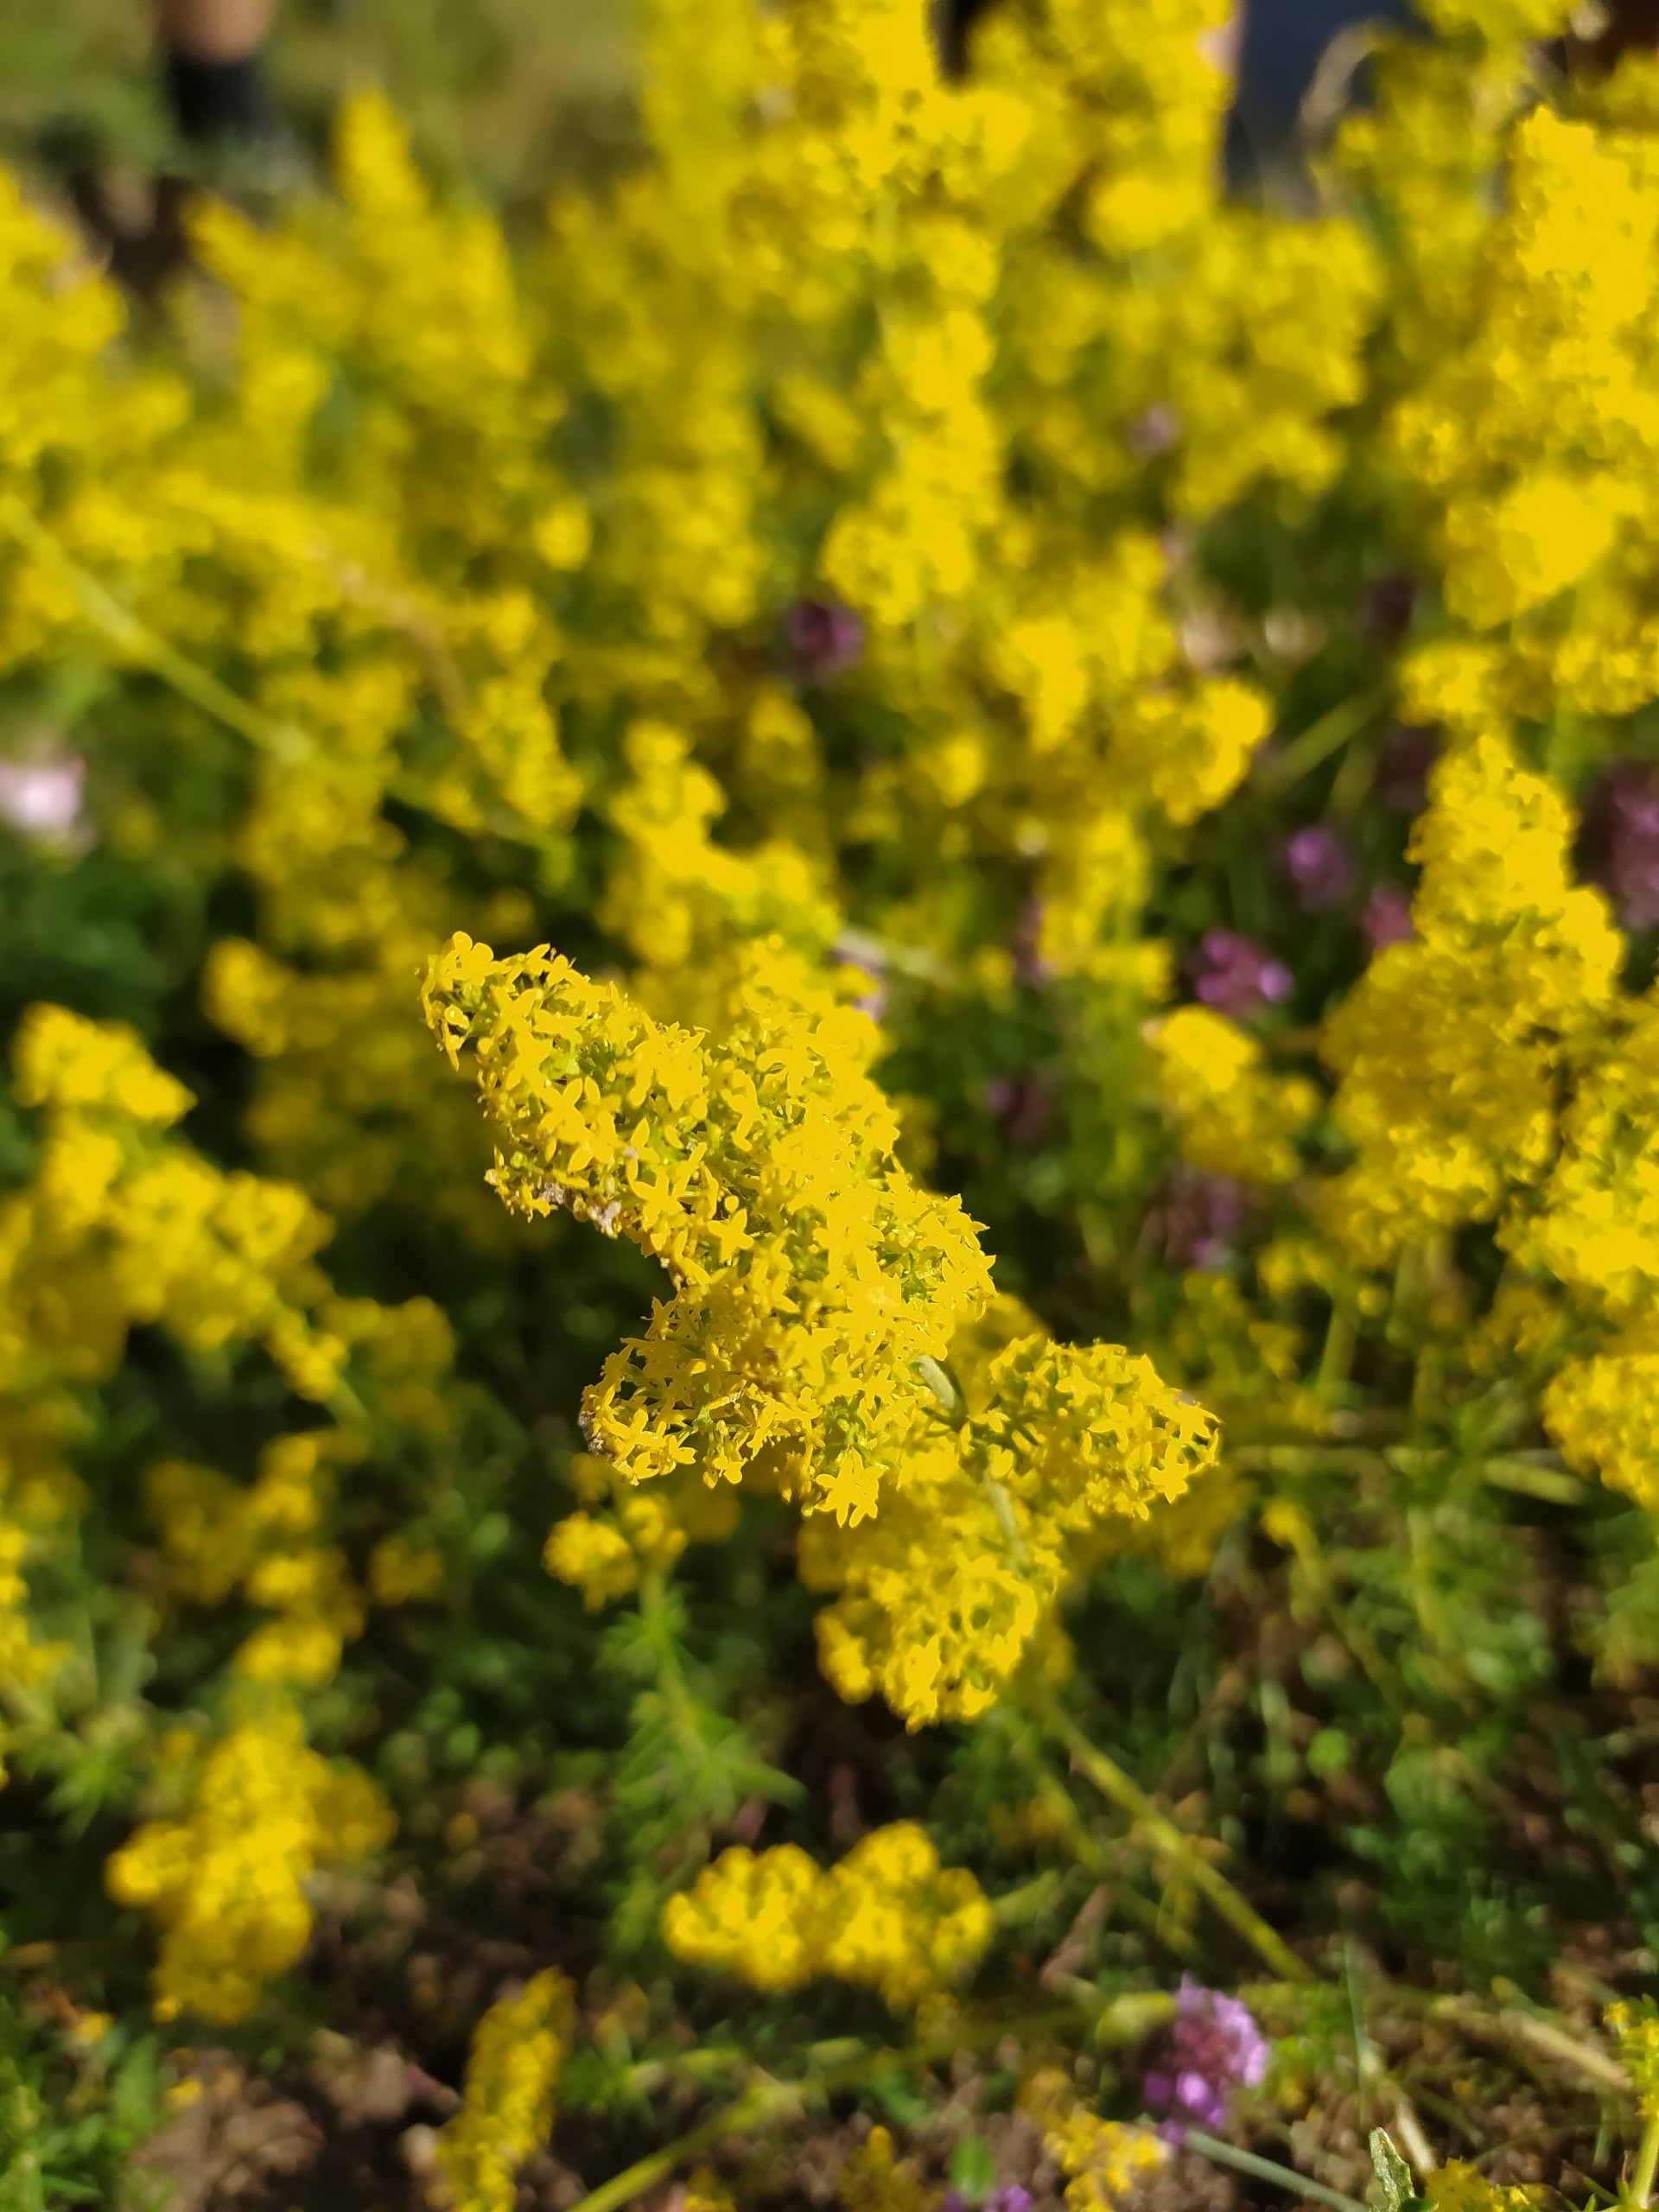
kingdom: Plantae
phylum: Tracheophyta
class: Magnoliopsida
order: Gentianales
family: Rubiaceae
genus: Galium
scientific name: Galium verum
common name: Gul snerre
